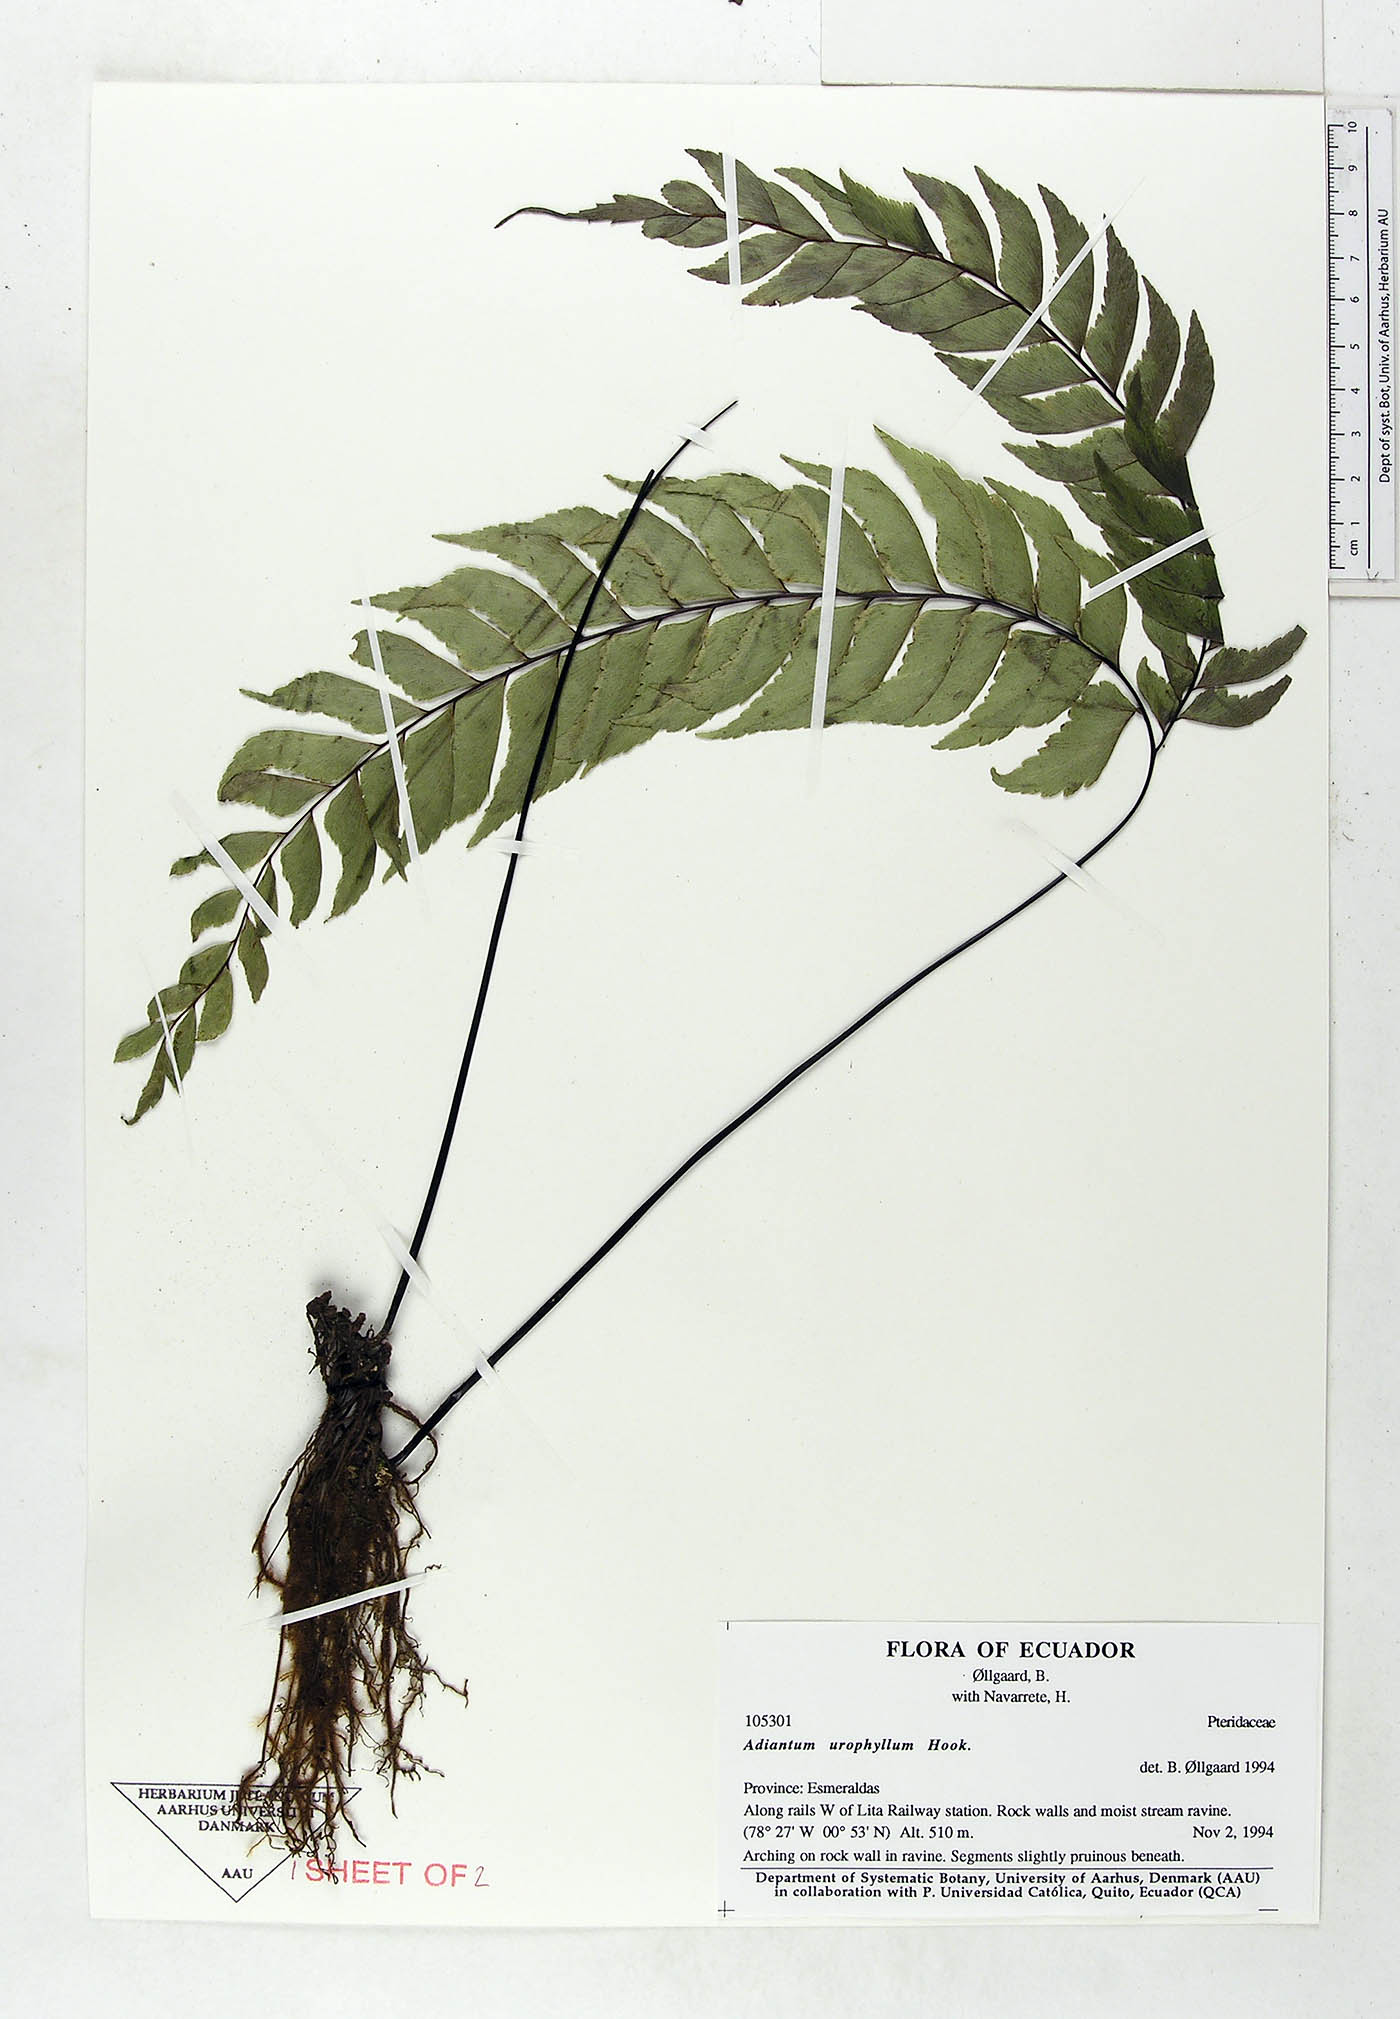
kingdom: Plantae
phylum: Tracheophyta
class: Polypodiopsida
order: Polypodiales
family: Pteridaceae
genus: Adiantum
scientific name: Adiantum urophyllum
